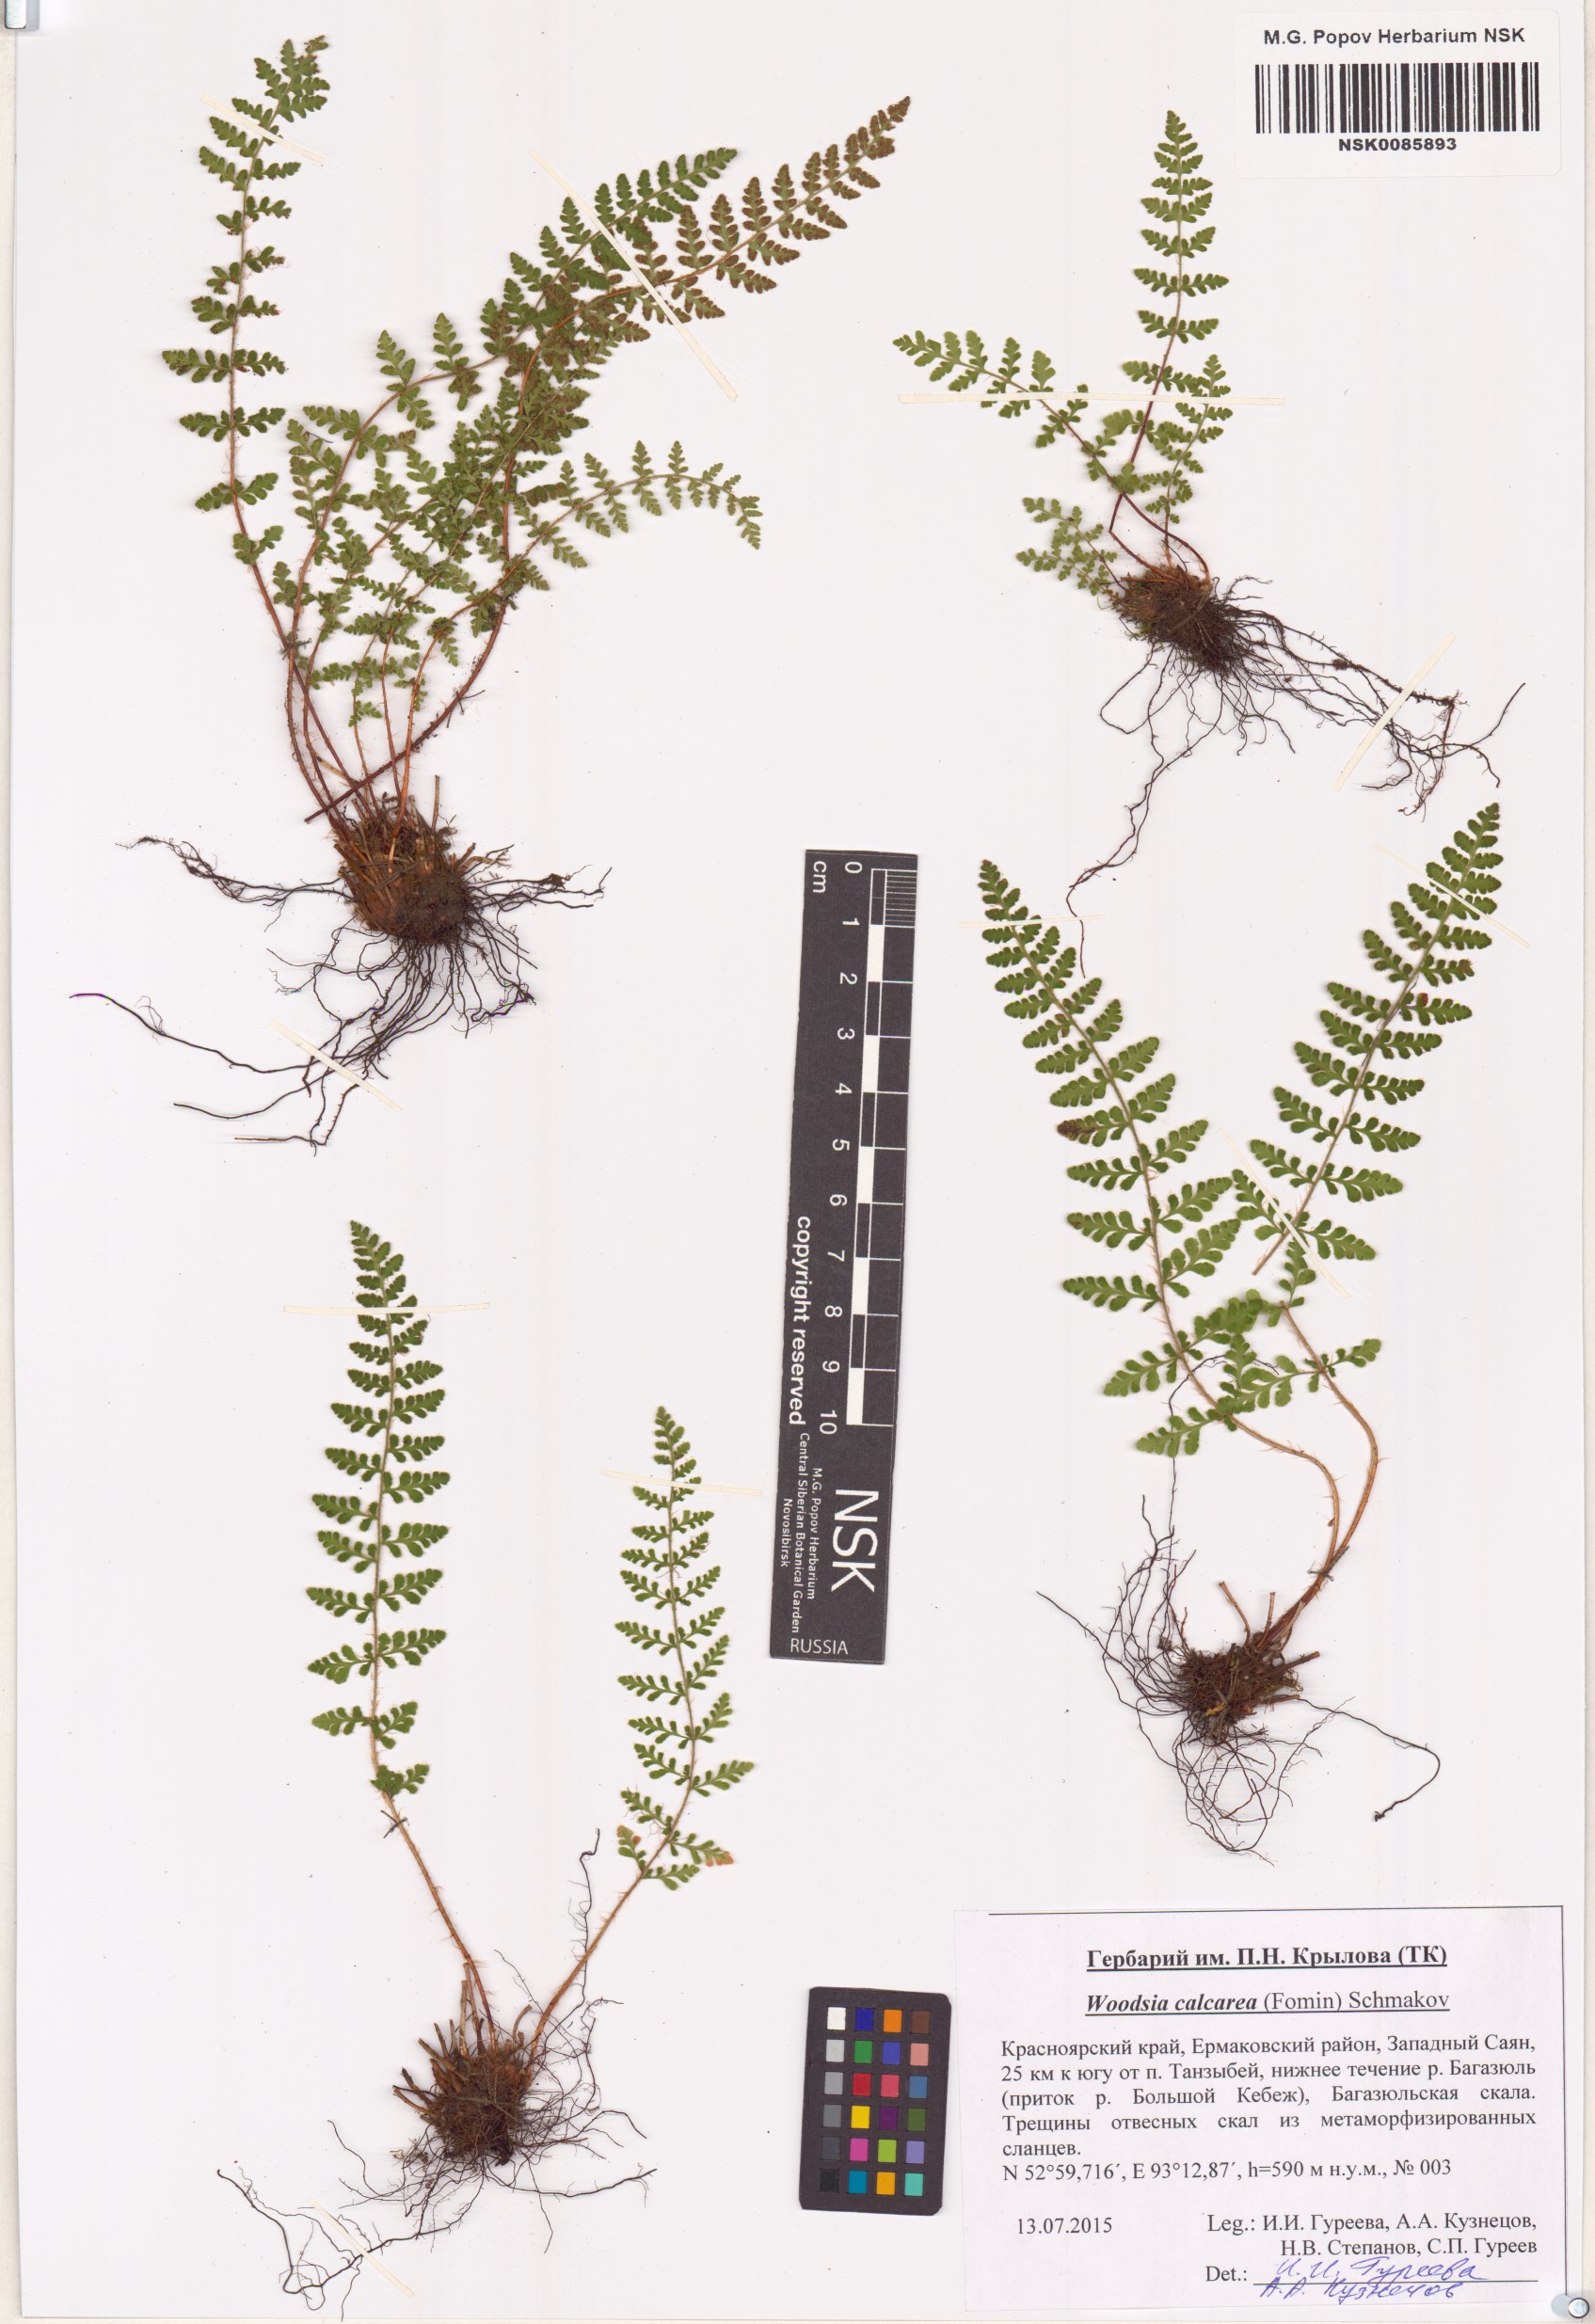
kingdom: Plantae
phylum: Tracheophyta
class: Polypodiopsida
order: Polypodiales
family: Woodsiaceae
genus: Woodsia
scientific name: Woodsia calcarea
